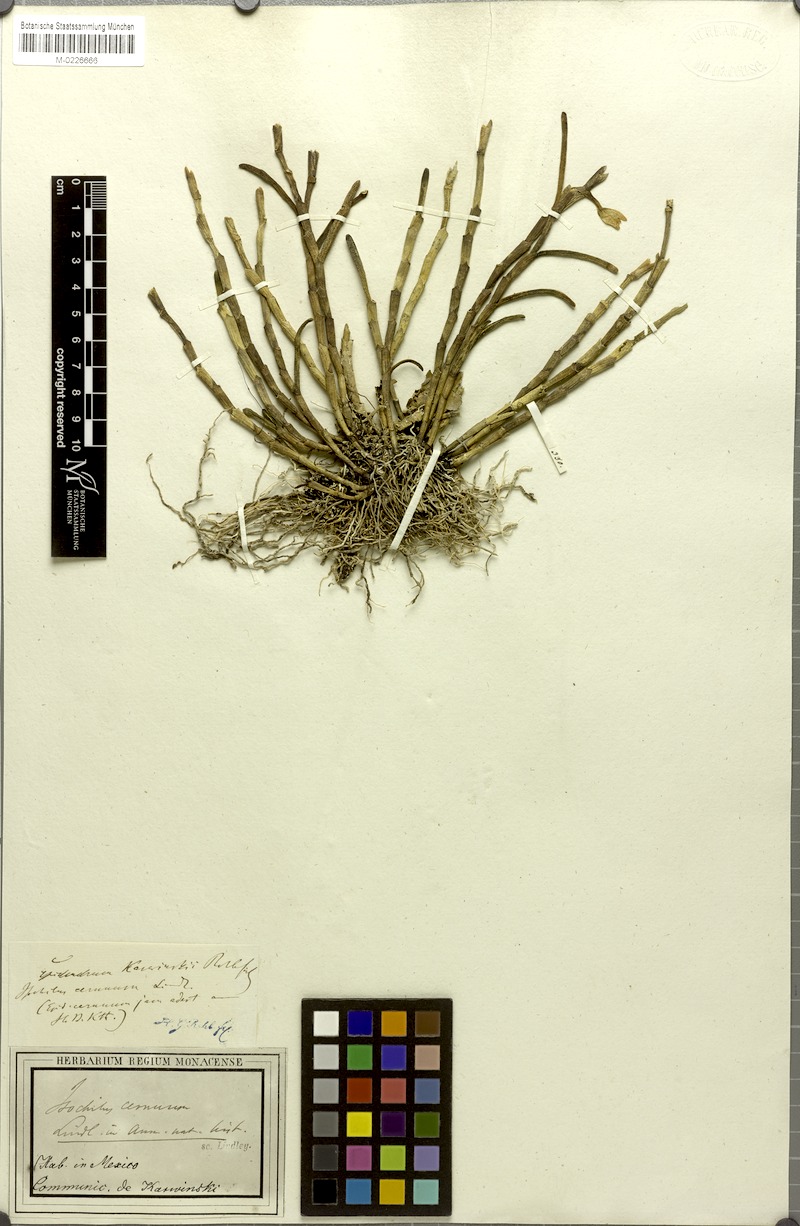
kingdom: Plantae
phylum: Tracheophyta
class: Liliopsida
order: Asparagales
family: Orchidaceae
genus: Jacquiniella
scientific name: Jacquiniella cernua
